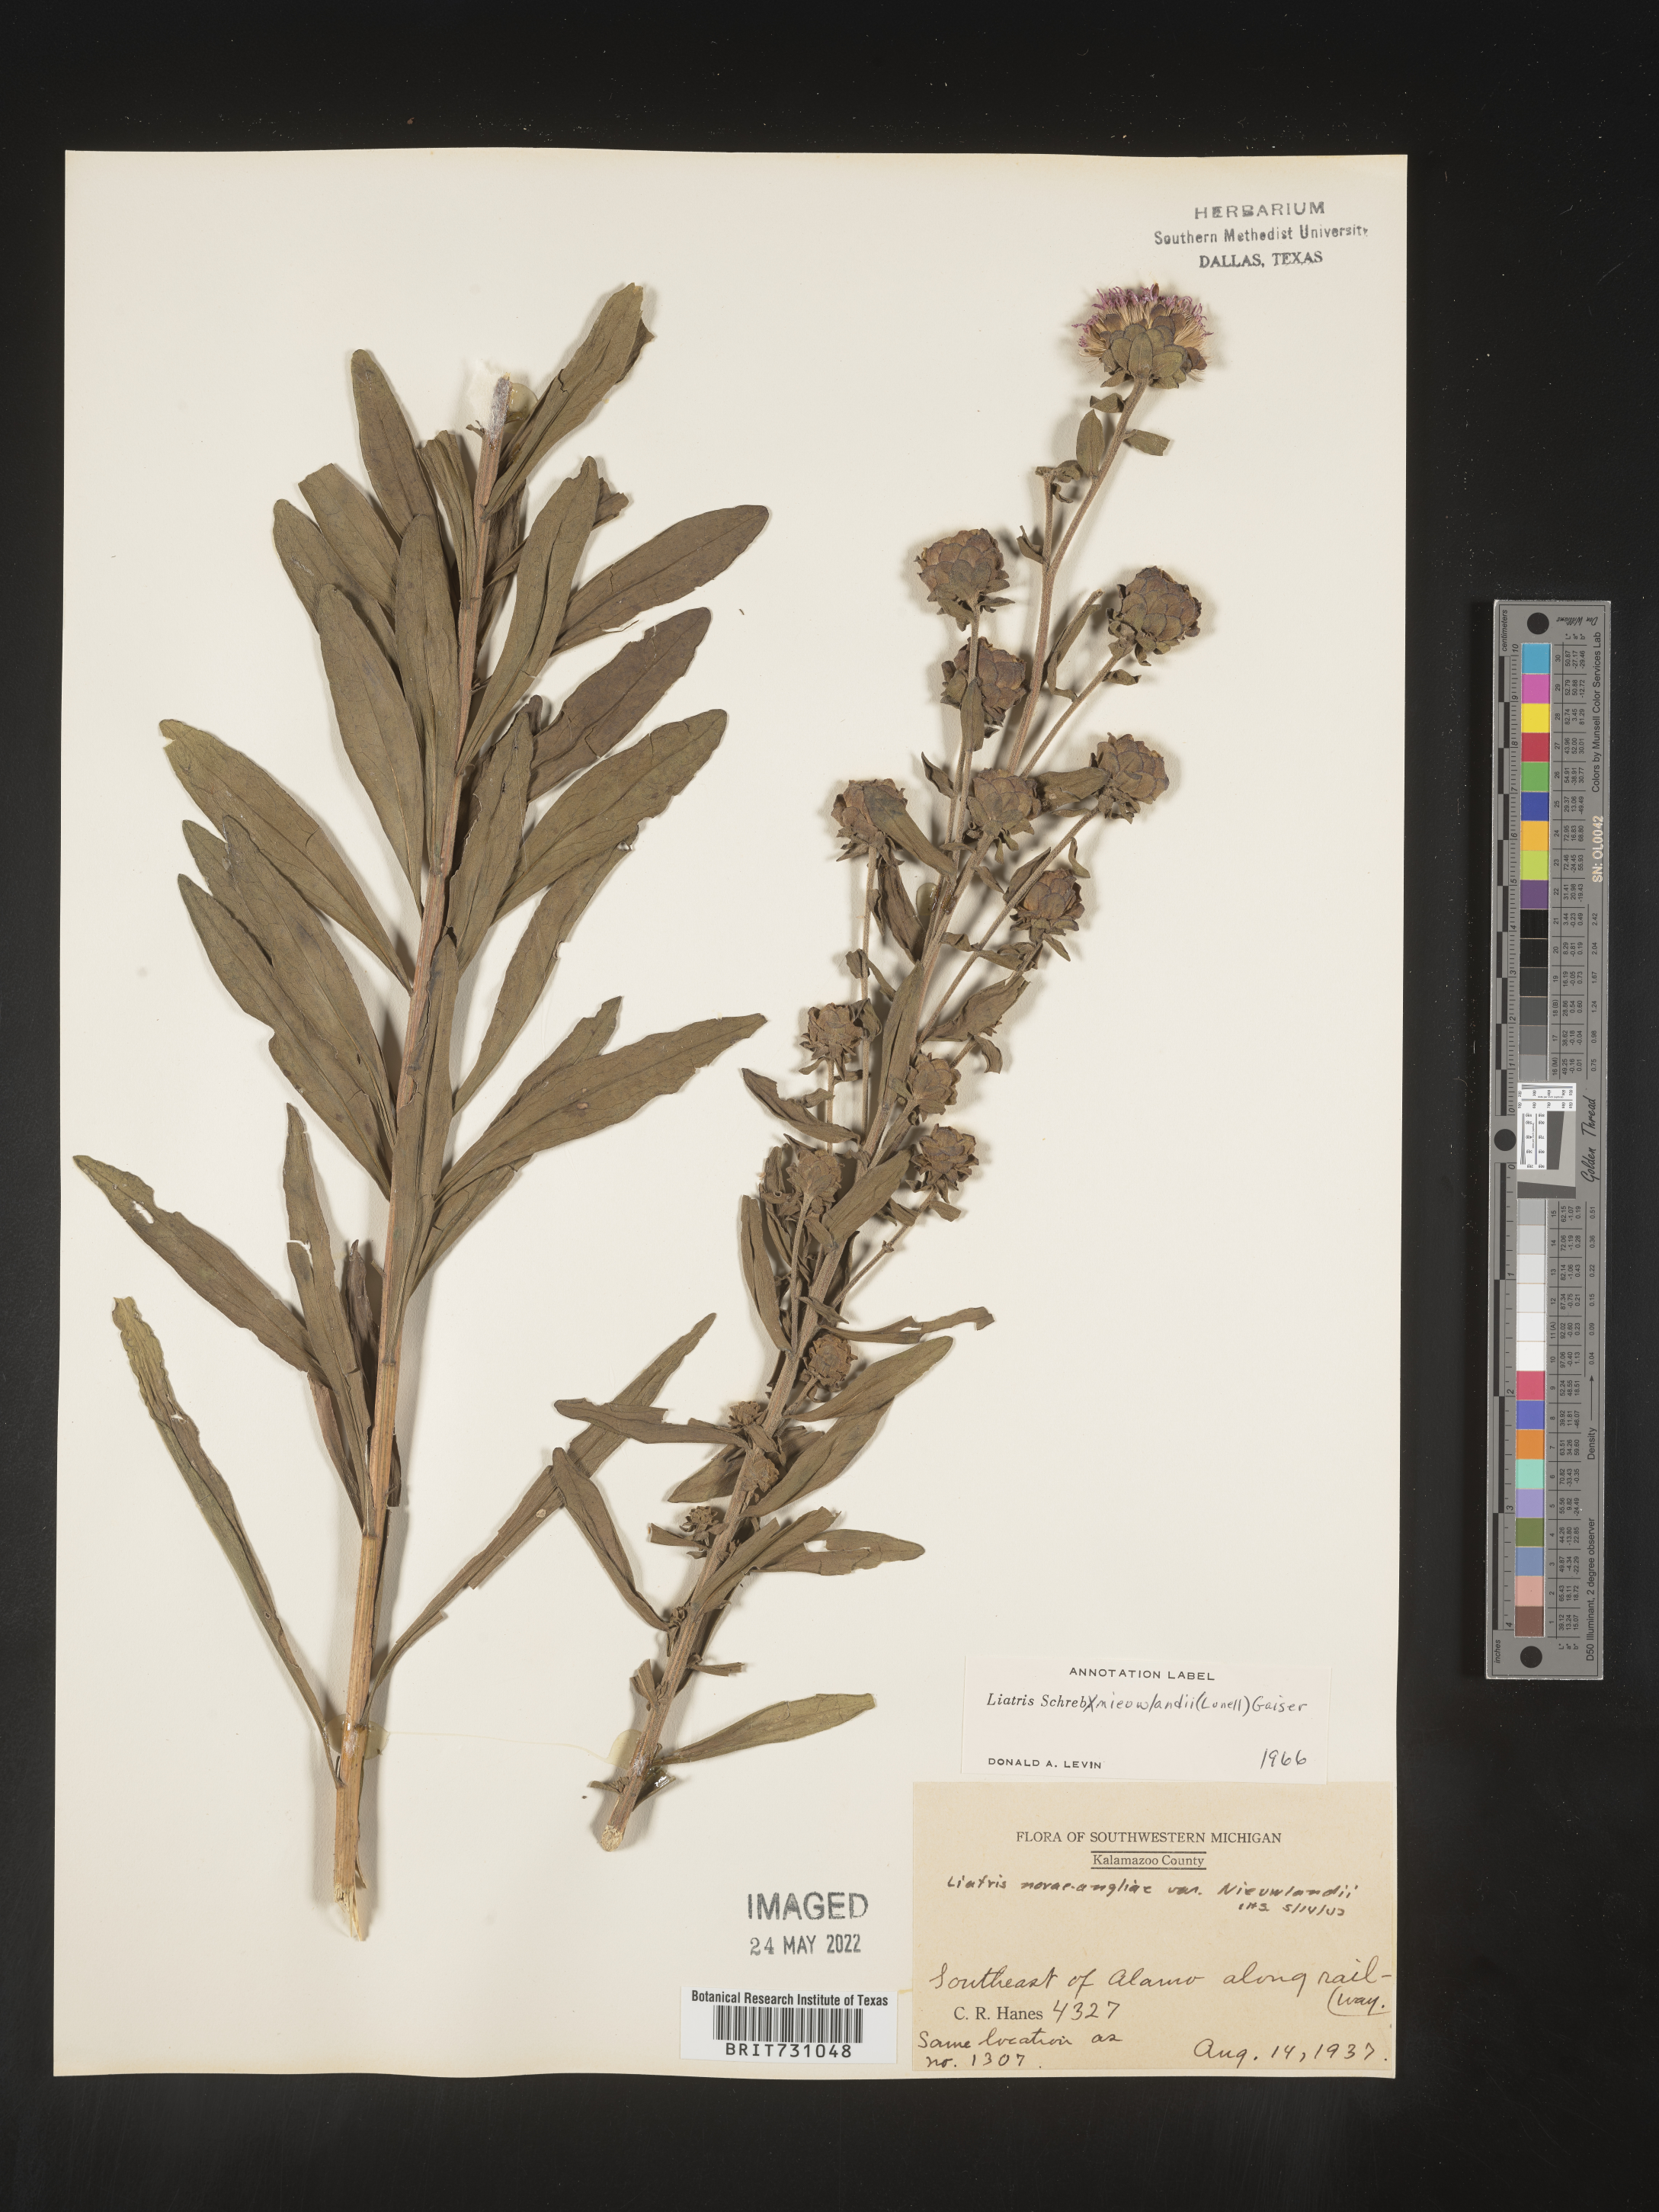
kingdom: Plantae
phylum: Tracheophyta
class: Magnoliopsida
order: Asterales
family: Asteraceae
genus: Liatris
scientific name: Liatris scariosa
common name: Northern gayfeather
